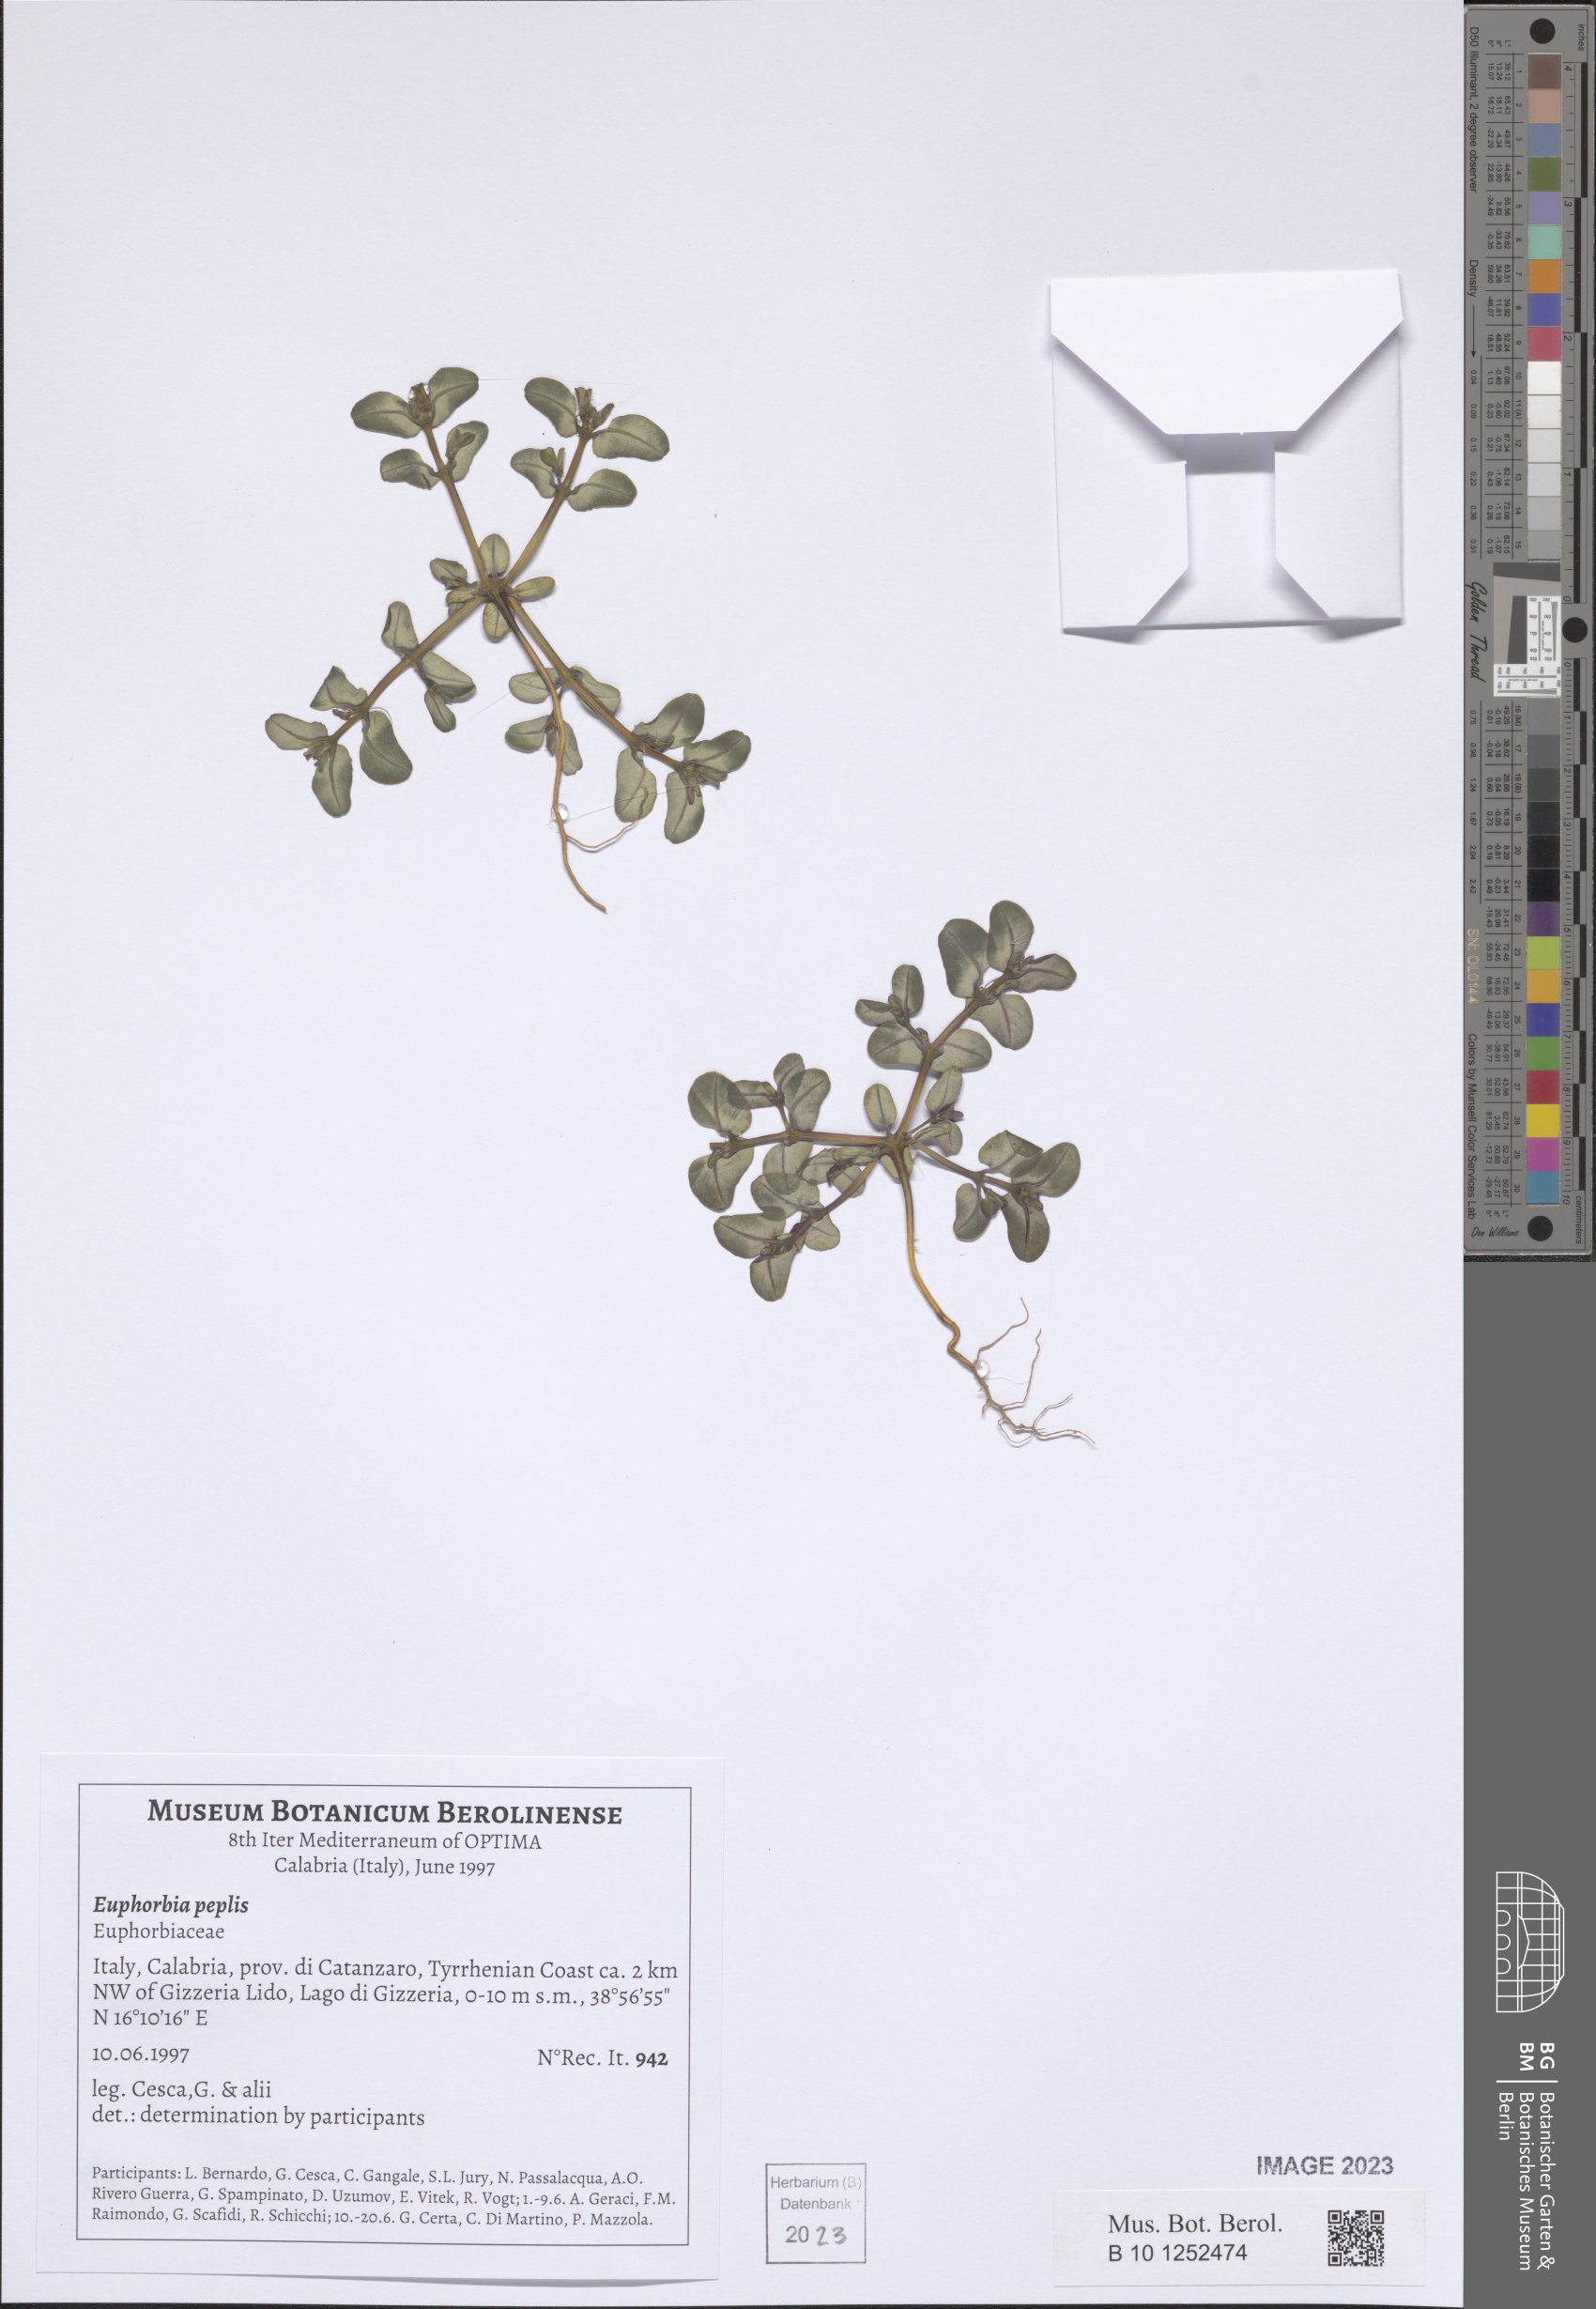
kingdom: Plantae
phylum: Tracheophyta
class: Magnoliopsida
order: Malpighiales
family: Euphorbiaceae
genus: Euphorbia
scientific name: Euphorbia peplis
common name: Purple spurge
